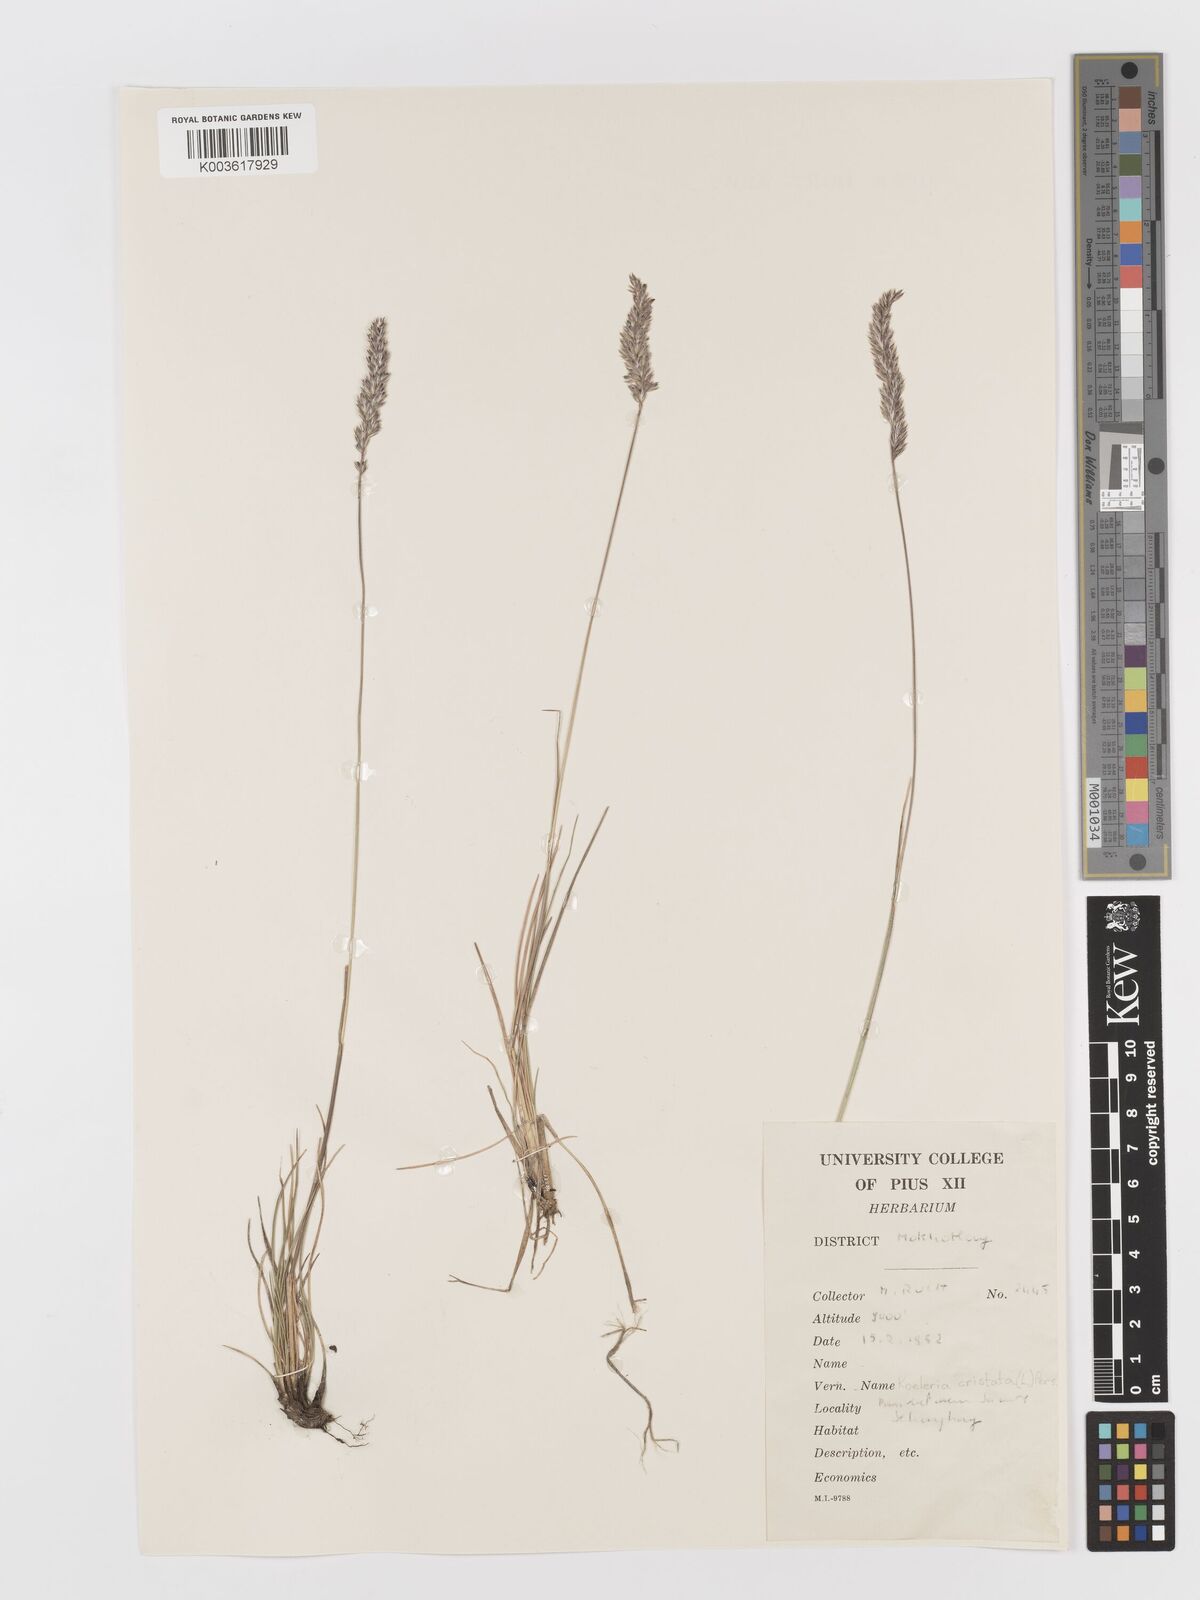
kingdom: Plantae
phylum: Tracheophyta
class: Liliopsida
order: Poales
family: Poaceae
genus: Koeleria
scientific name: Koeleria
